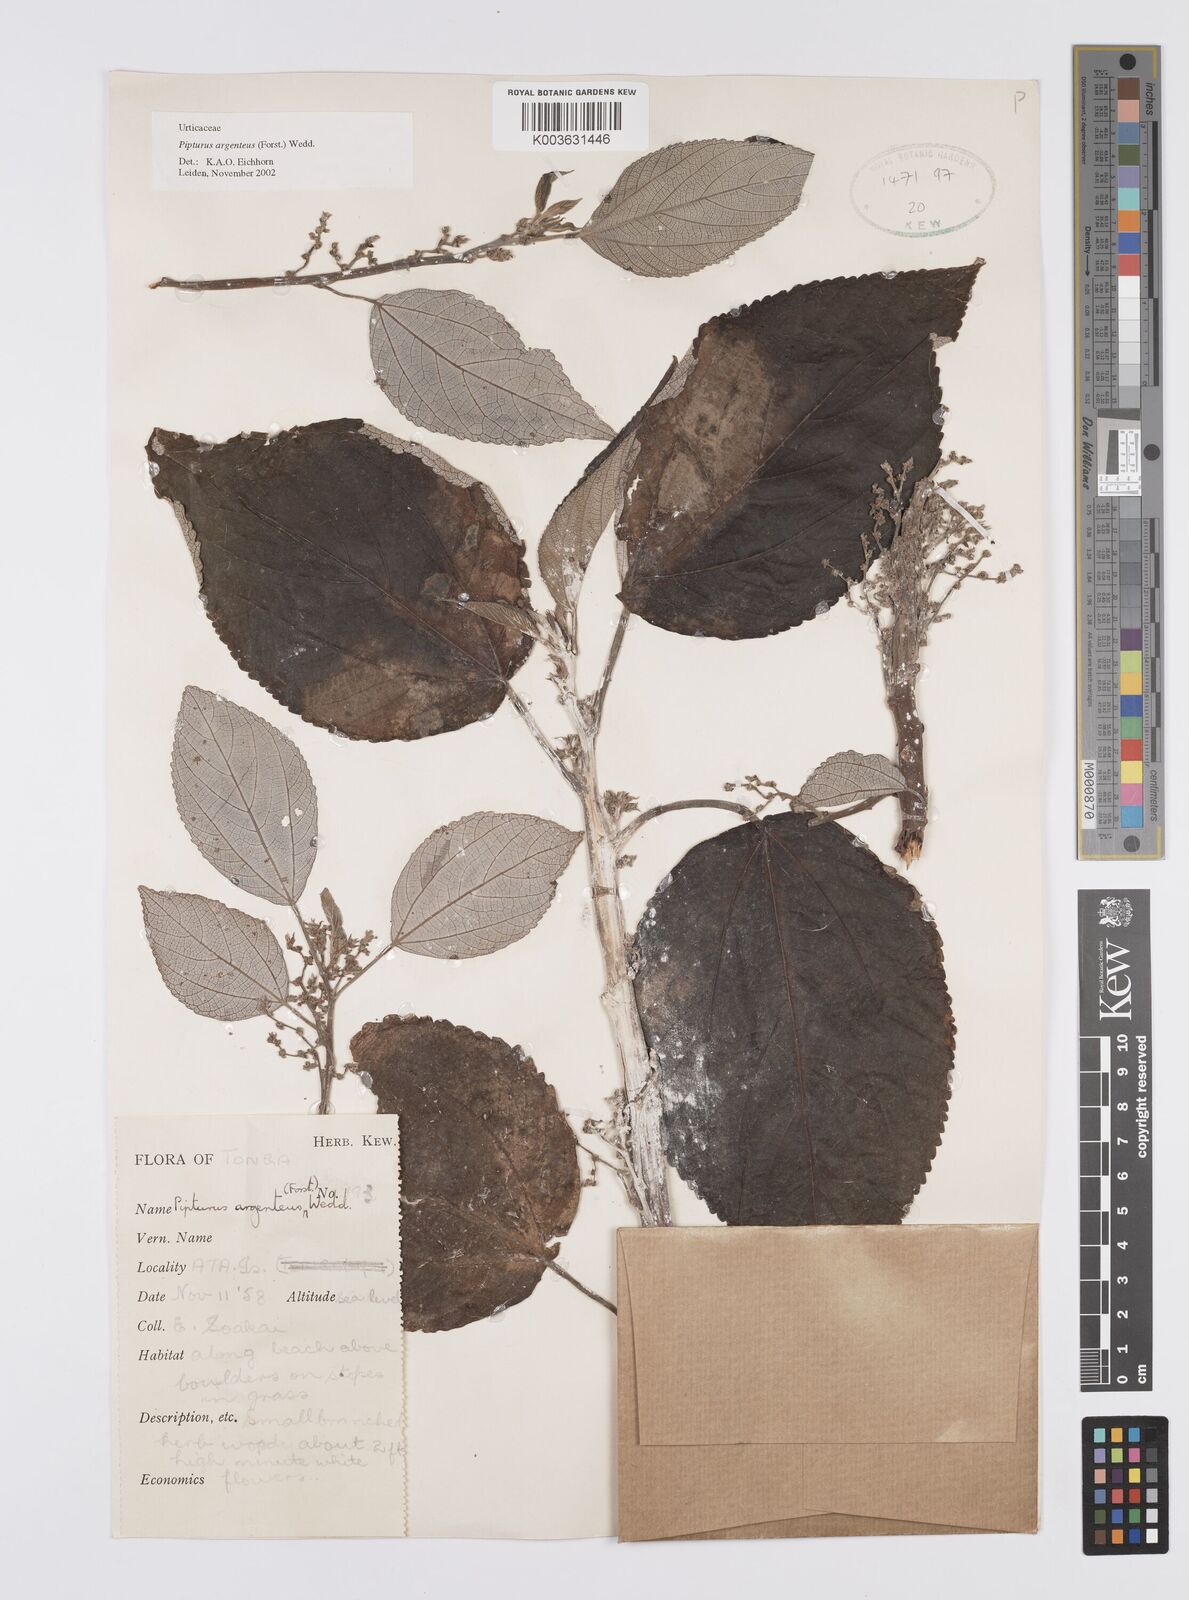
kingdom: Plantae
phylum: Tracheophyta
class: Magnoliopsida
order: Rosales
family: Urticaceae
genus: Pipturus
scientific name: Pipturus argenteus
